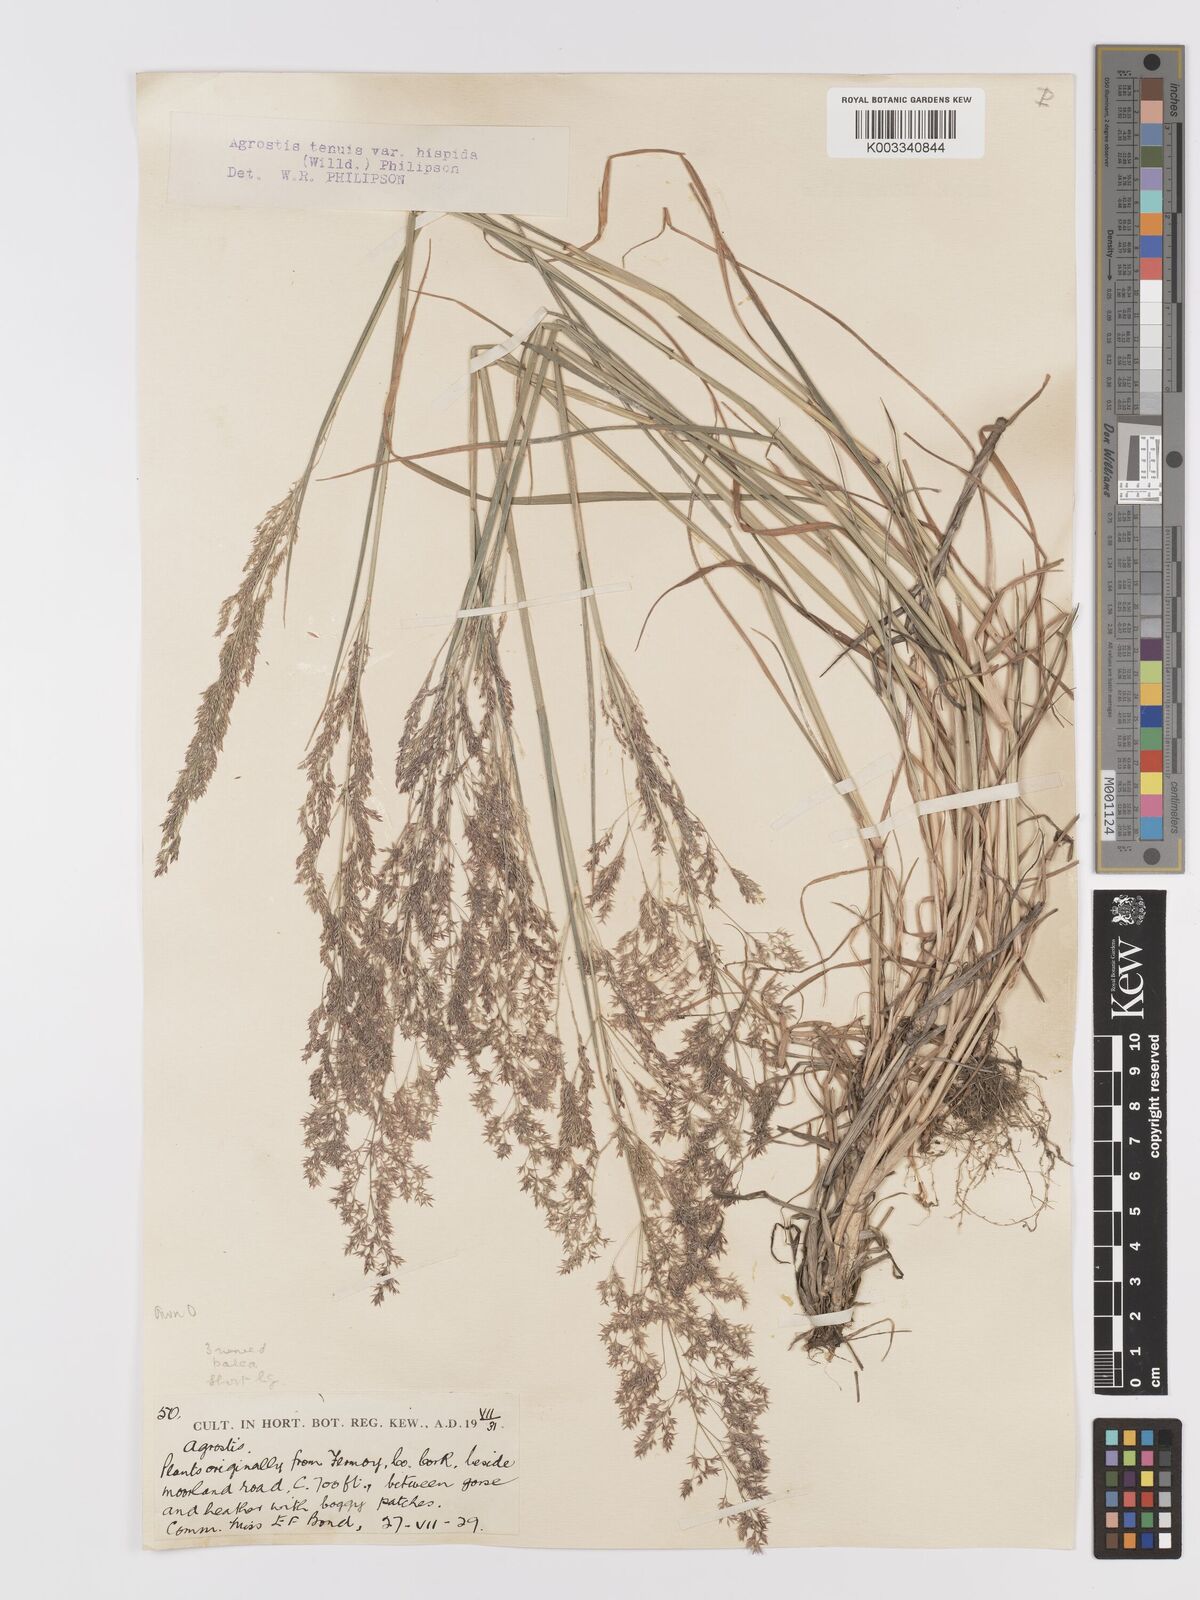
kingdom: Plantae
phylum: Tracheophyta
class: Liliopsida
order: Poales
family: Poaceae
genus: Agrostis
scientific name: Agrostis capillaris
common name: Colonial bentgrass
